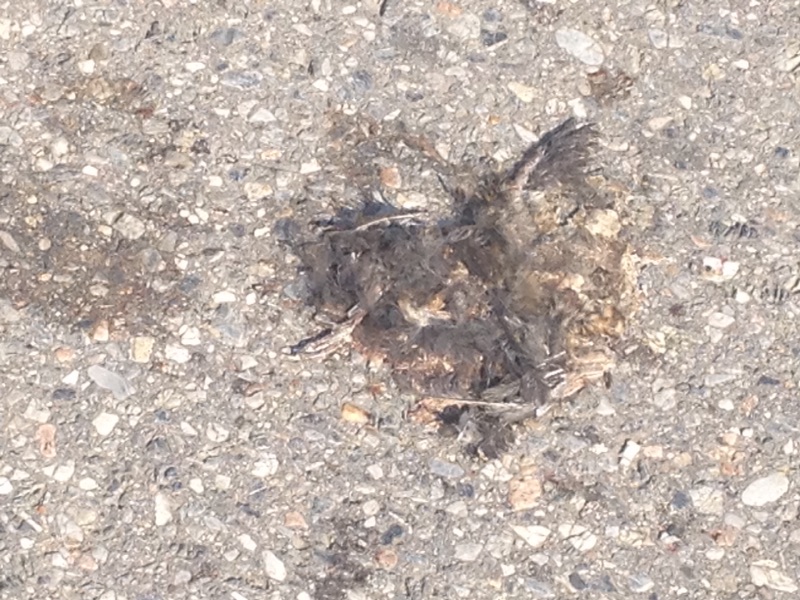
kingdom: Animalia
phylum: Chordata
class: Aves
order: Passeriformes
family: Turdidae
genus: Turdus
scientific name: Turdus merula
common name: Common blackbird
